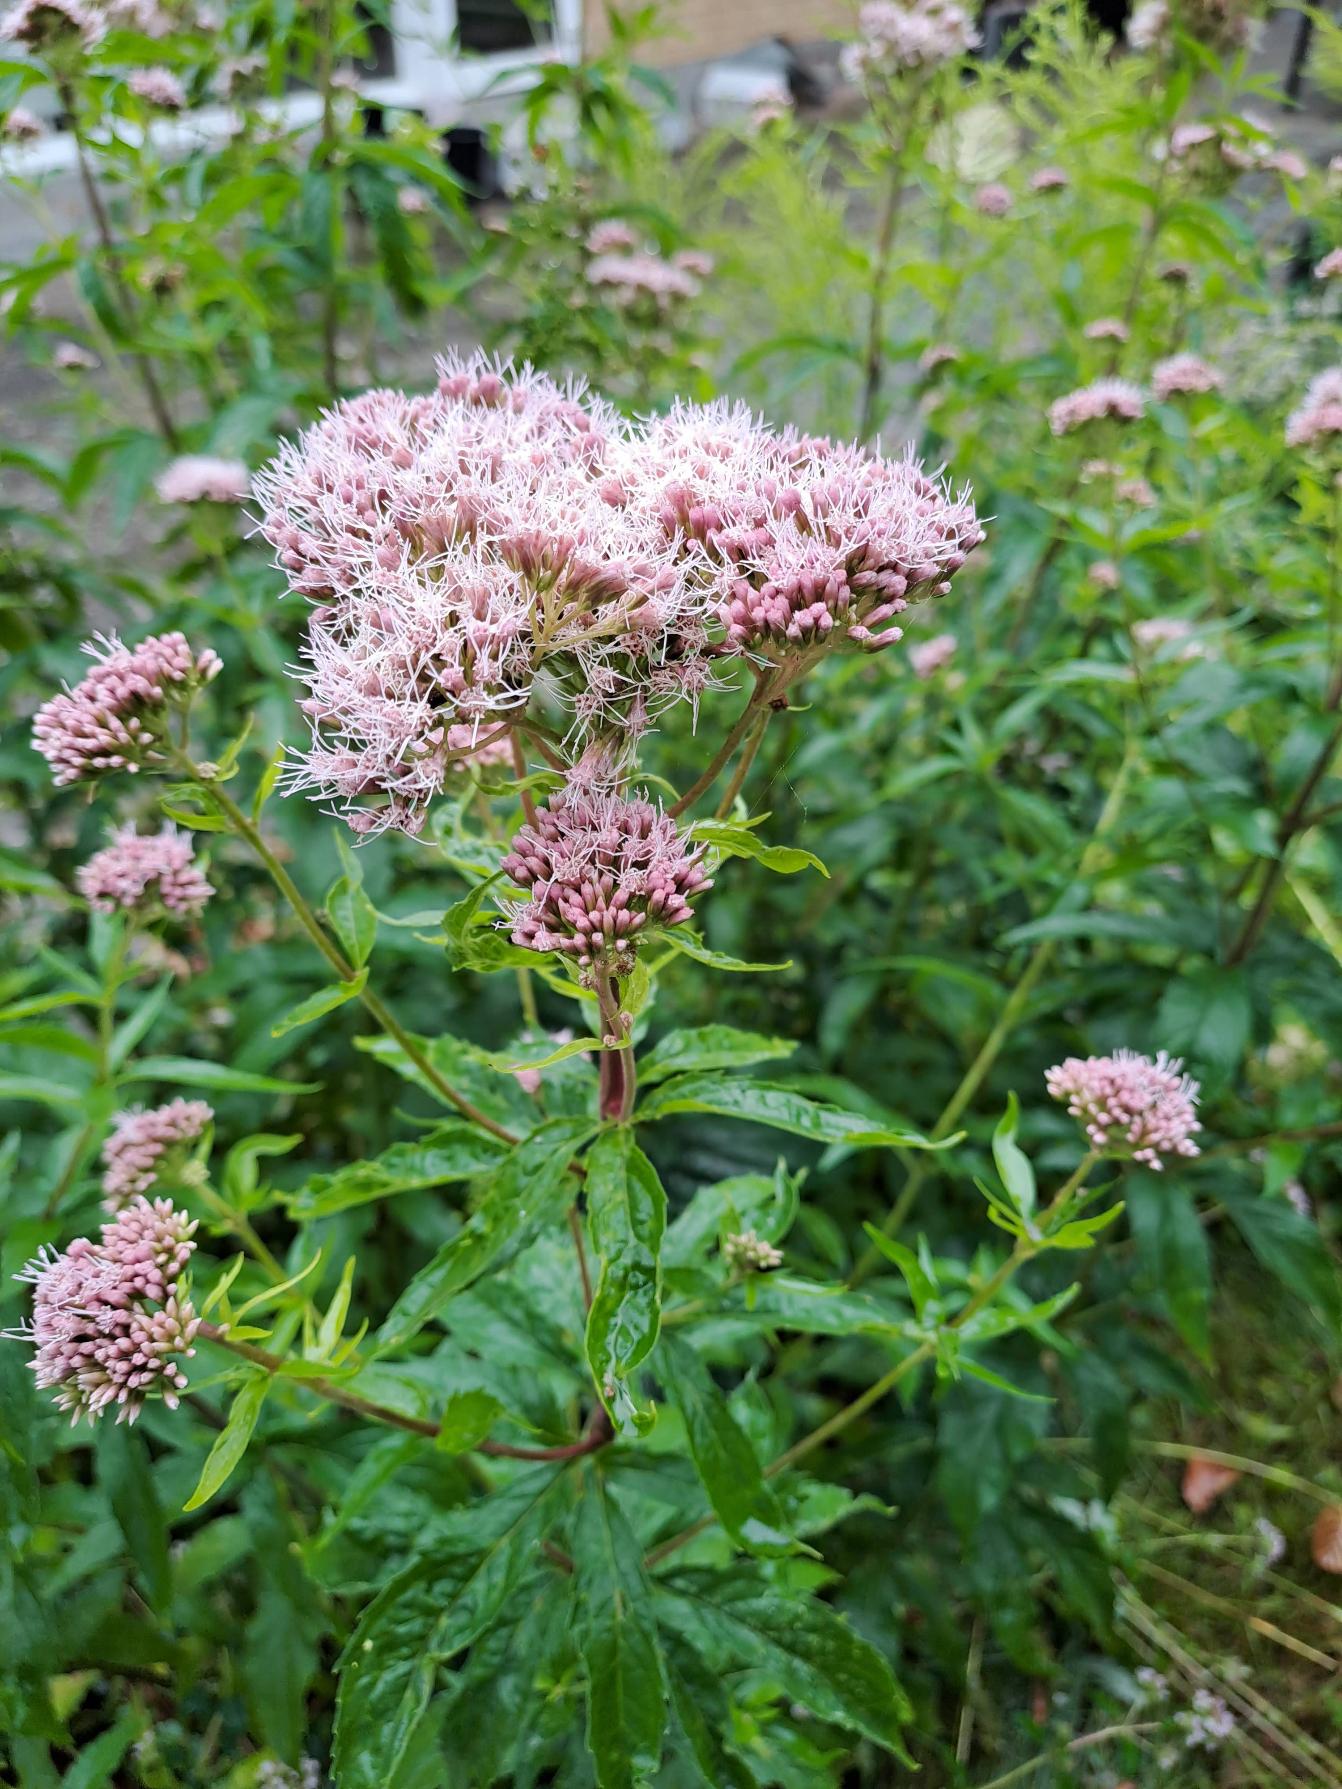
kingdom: Plantae
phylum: Tracheophyta
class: Magnoliopsida
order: Asterales
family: Asteraceae
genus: Eupatorium
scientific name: Eupatorium cannabinum
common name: Hjortetrøst
